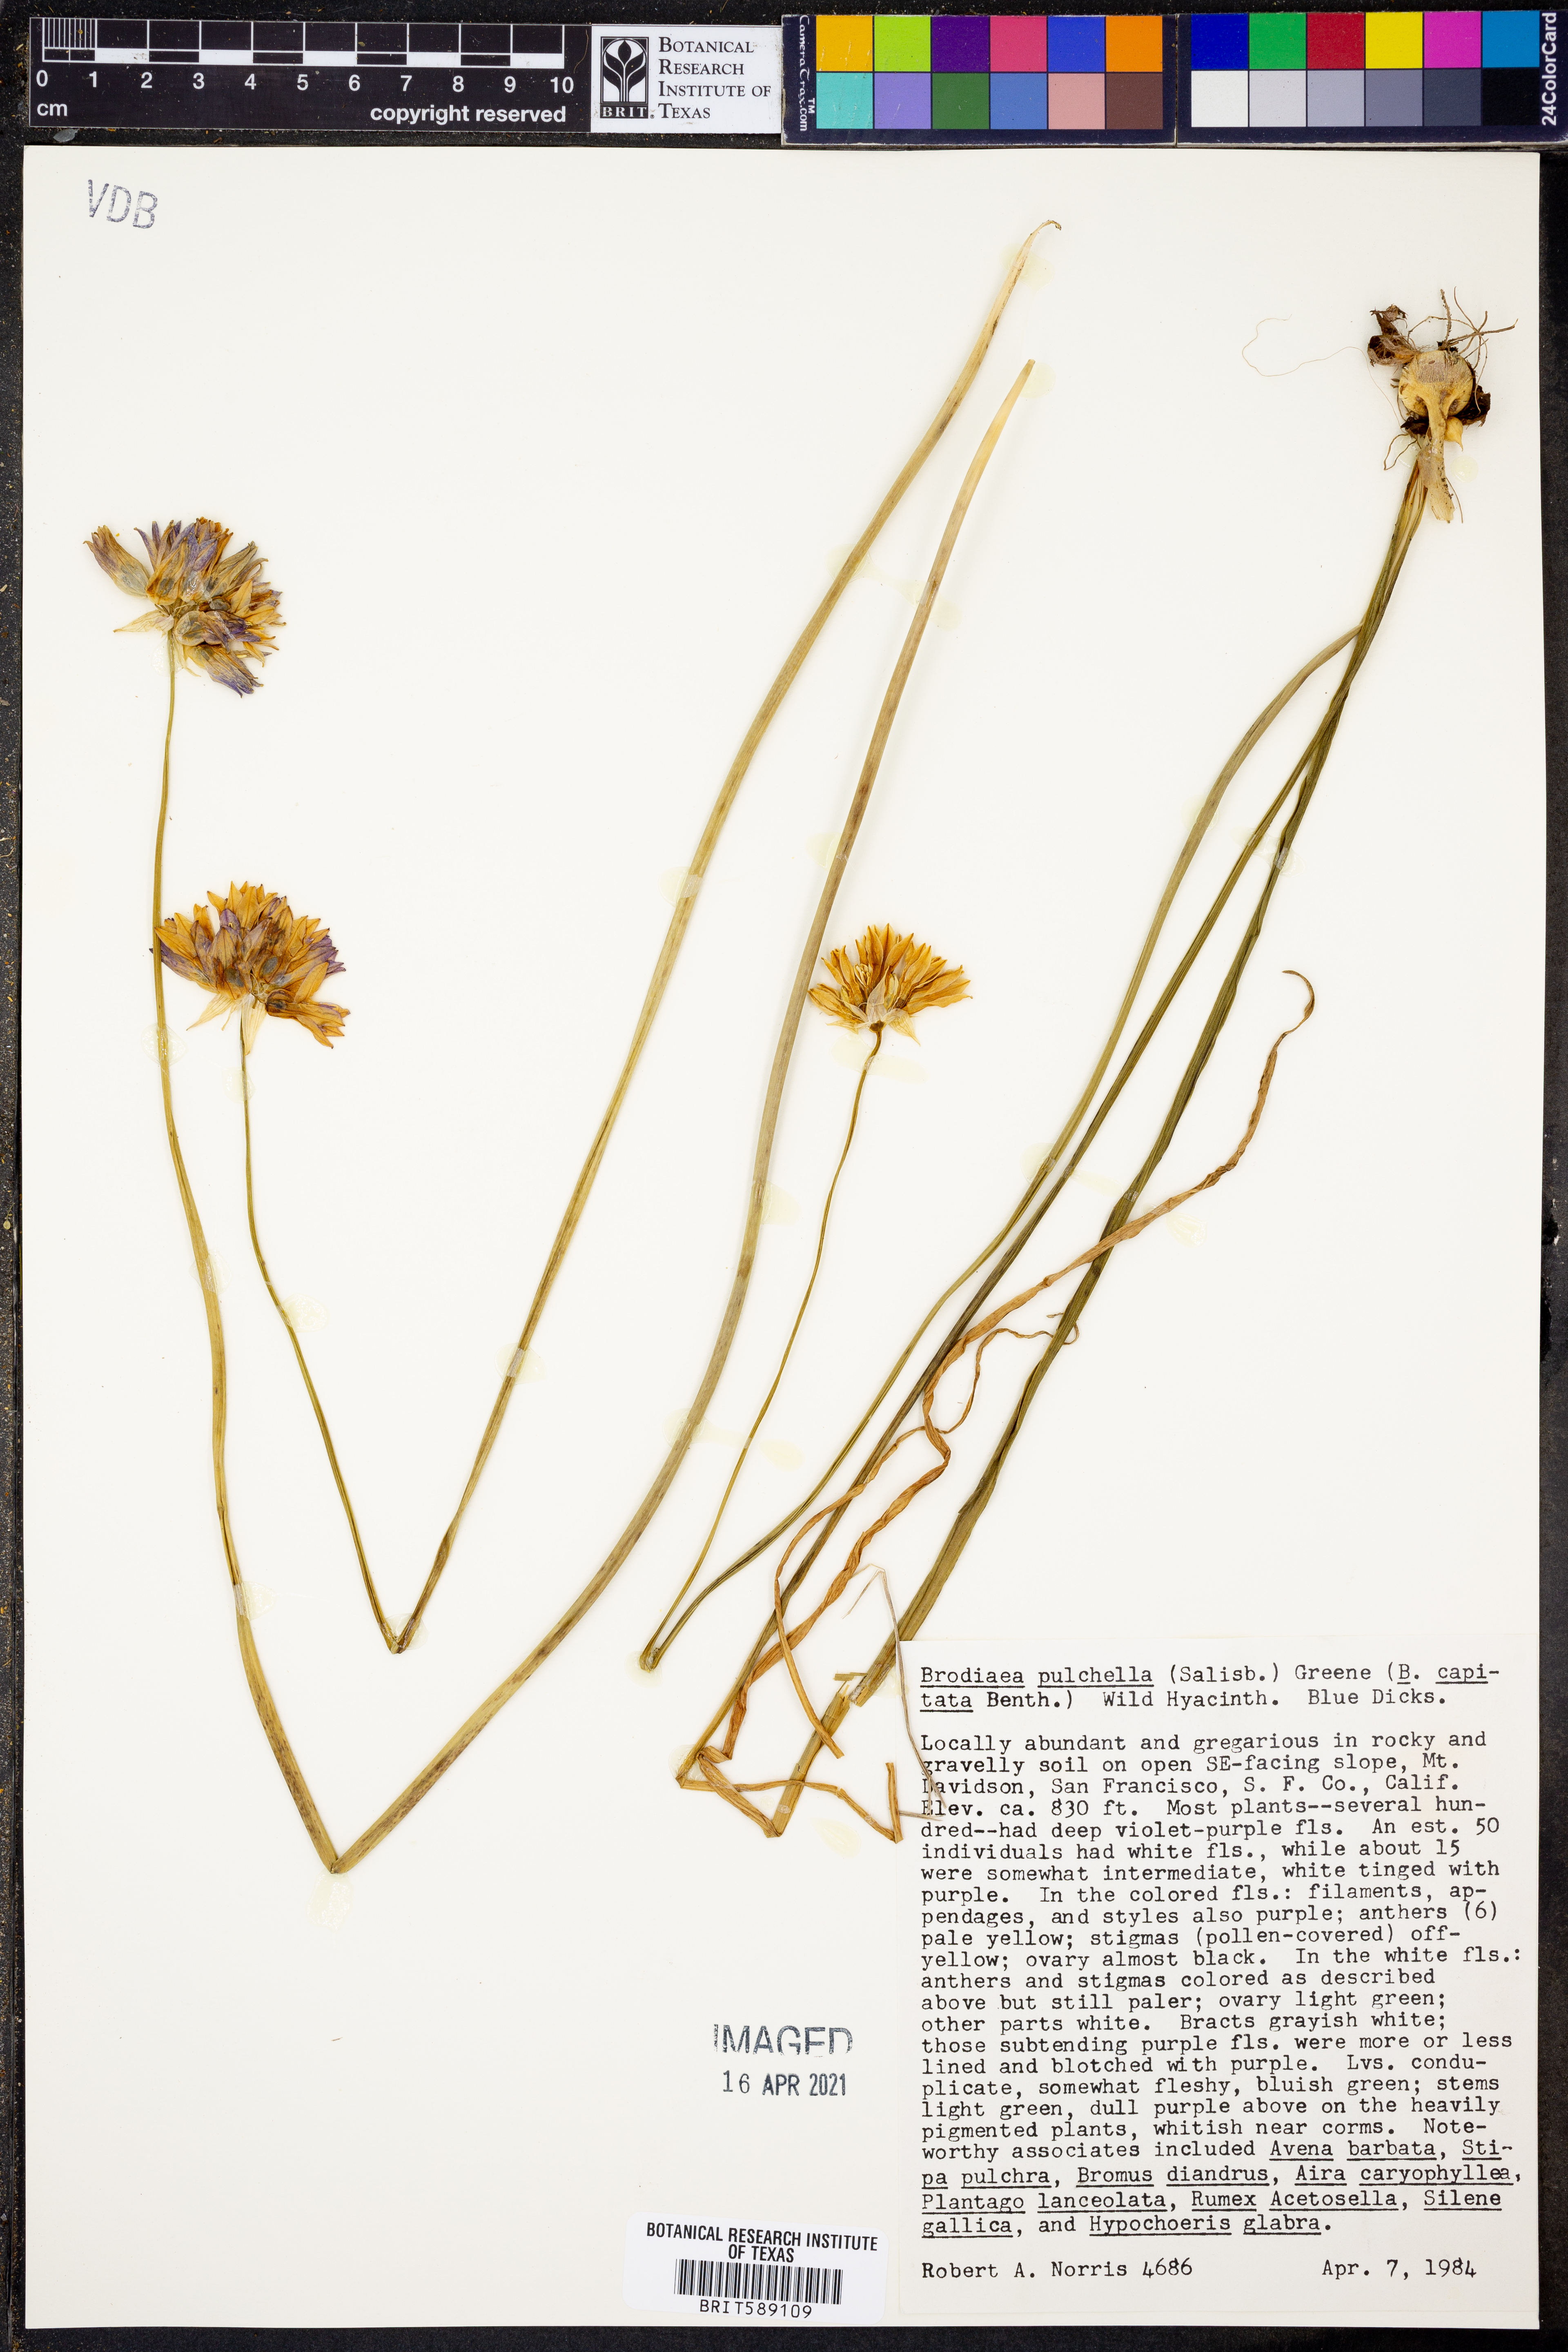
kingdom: Plantae
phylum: Tracheophyta
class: Liliopsida
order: Asparagales
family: Asparagaceae
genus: Dichelostemma
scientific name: Dichelostemma congestum
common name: Fork-tooth ookow
